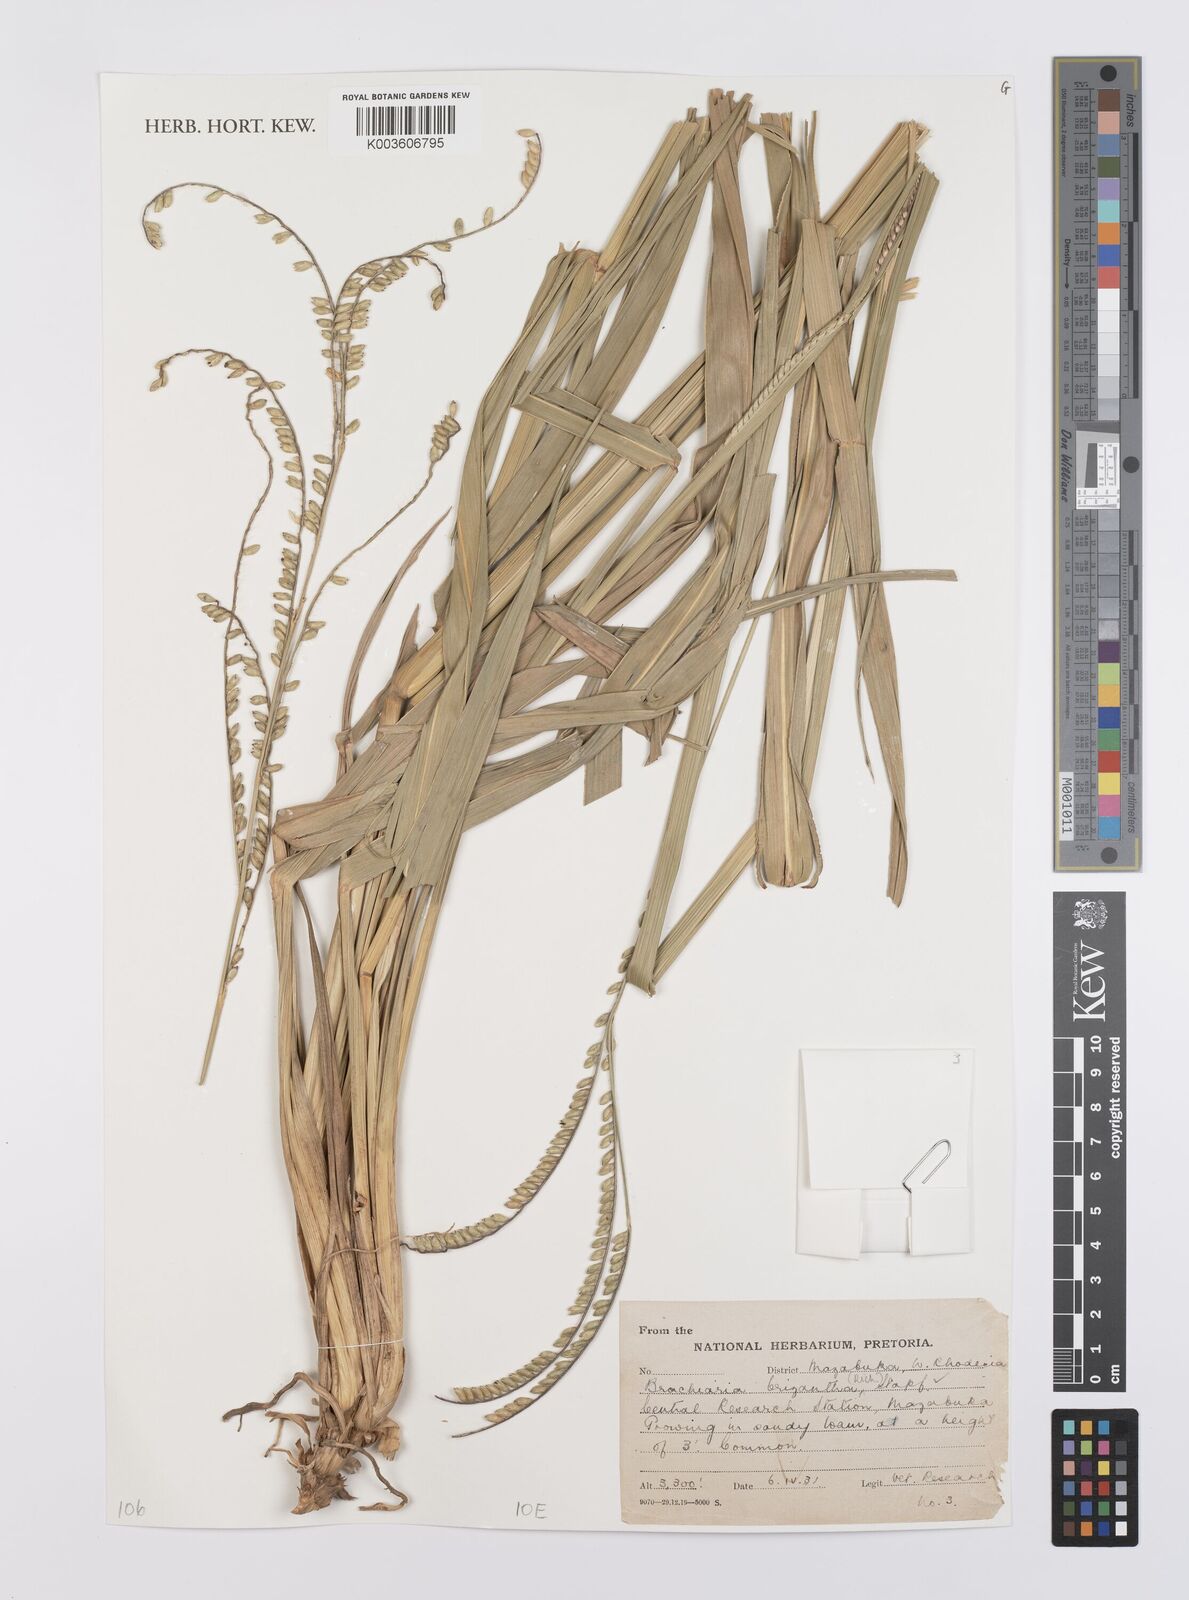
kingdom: Plantae
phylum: Tracheophyta
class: Liliopsida
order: Poales
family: Poaceae
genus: Urochloa
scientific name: Urochloa brizantha
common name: Palisade signalgrass
